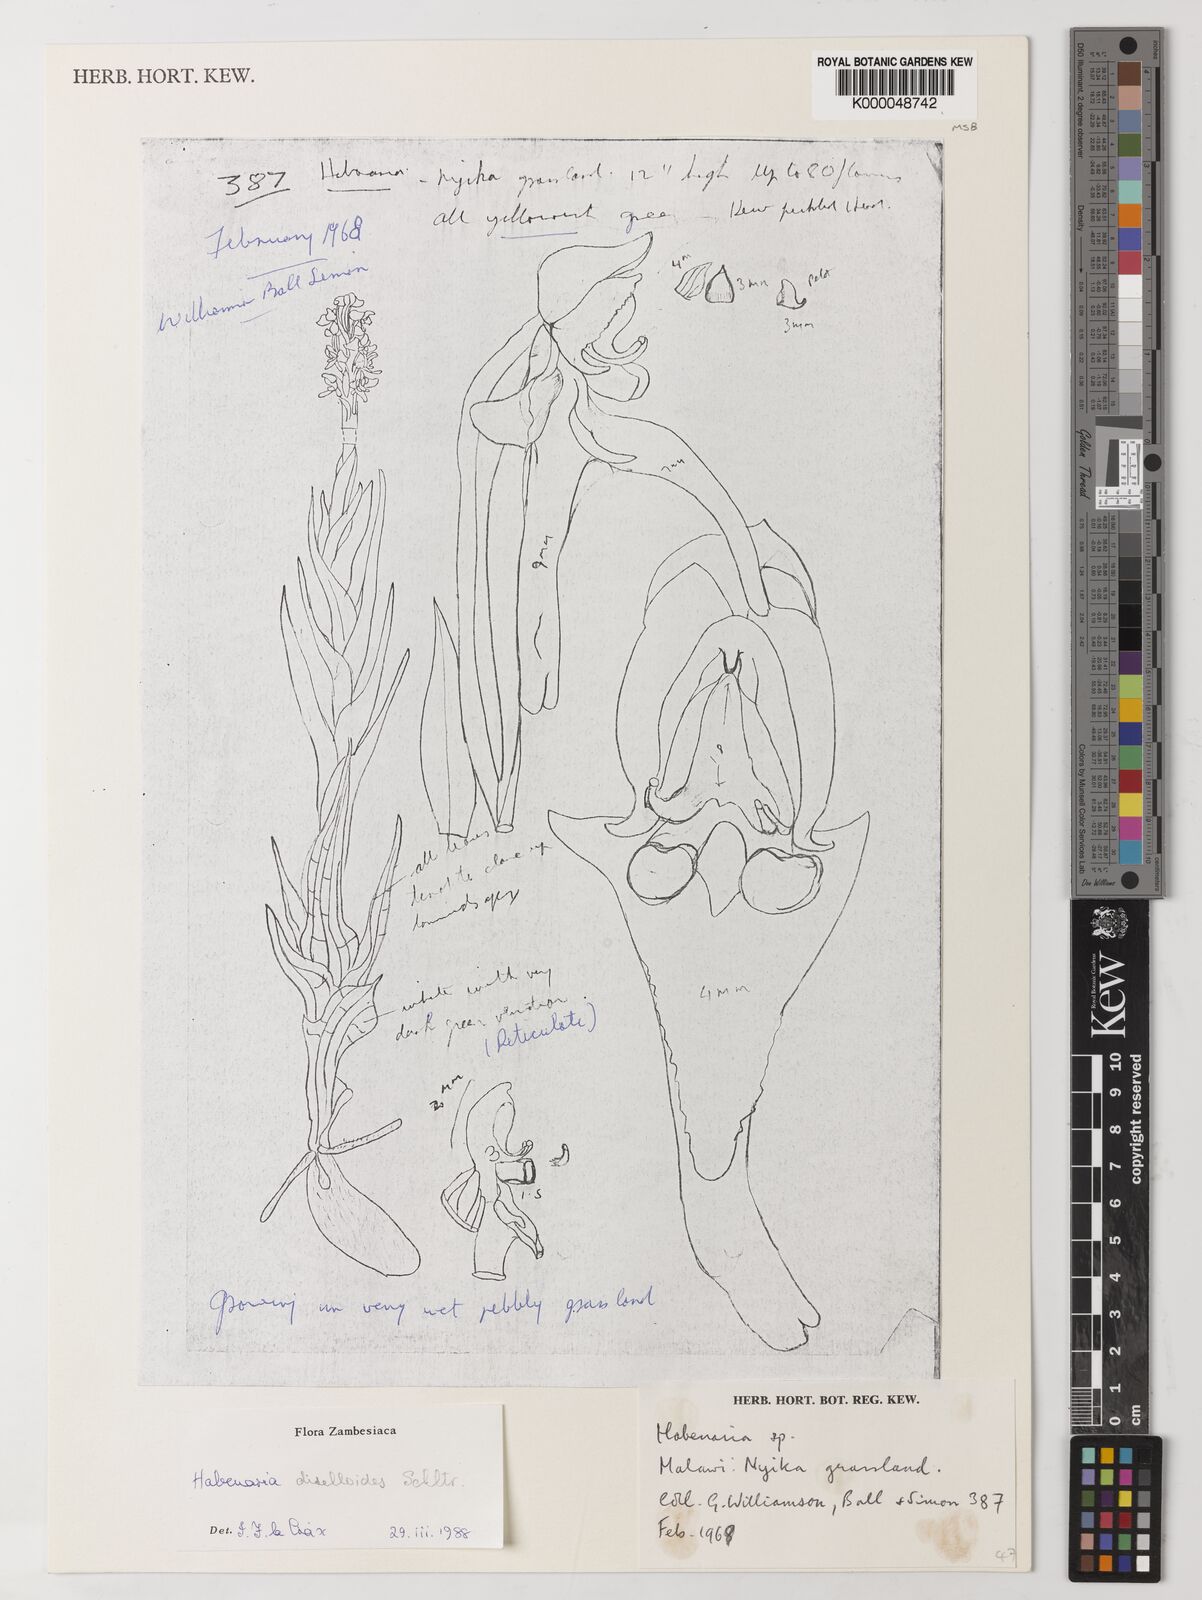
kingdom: Plantae
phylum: Tracheophyta
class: Liliopsida
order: Asparagales
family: Orchidaceae
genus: Habenaria
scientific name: Habenaria diselloides
